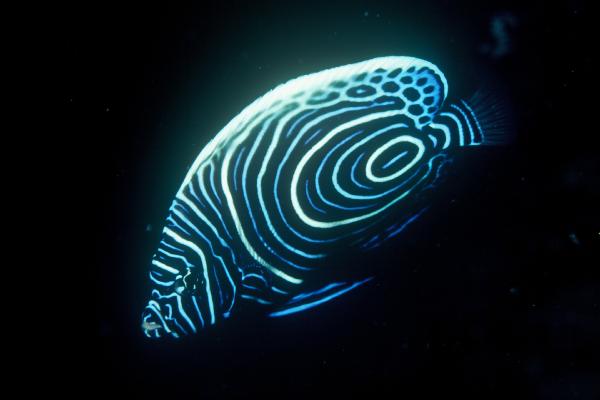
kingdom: Animalia
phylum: Chordata
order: Perciformes
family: Pomacanthidae
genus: Pomacanthus
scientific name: Pomacanthus imperator
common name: Emperor angelfish
